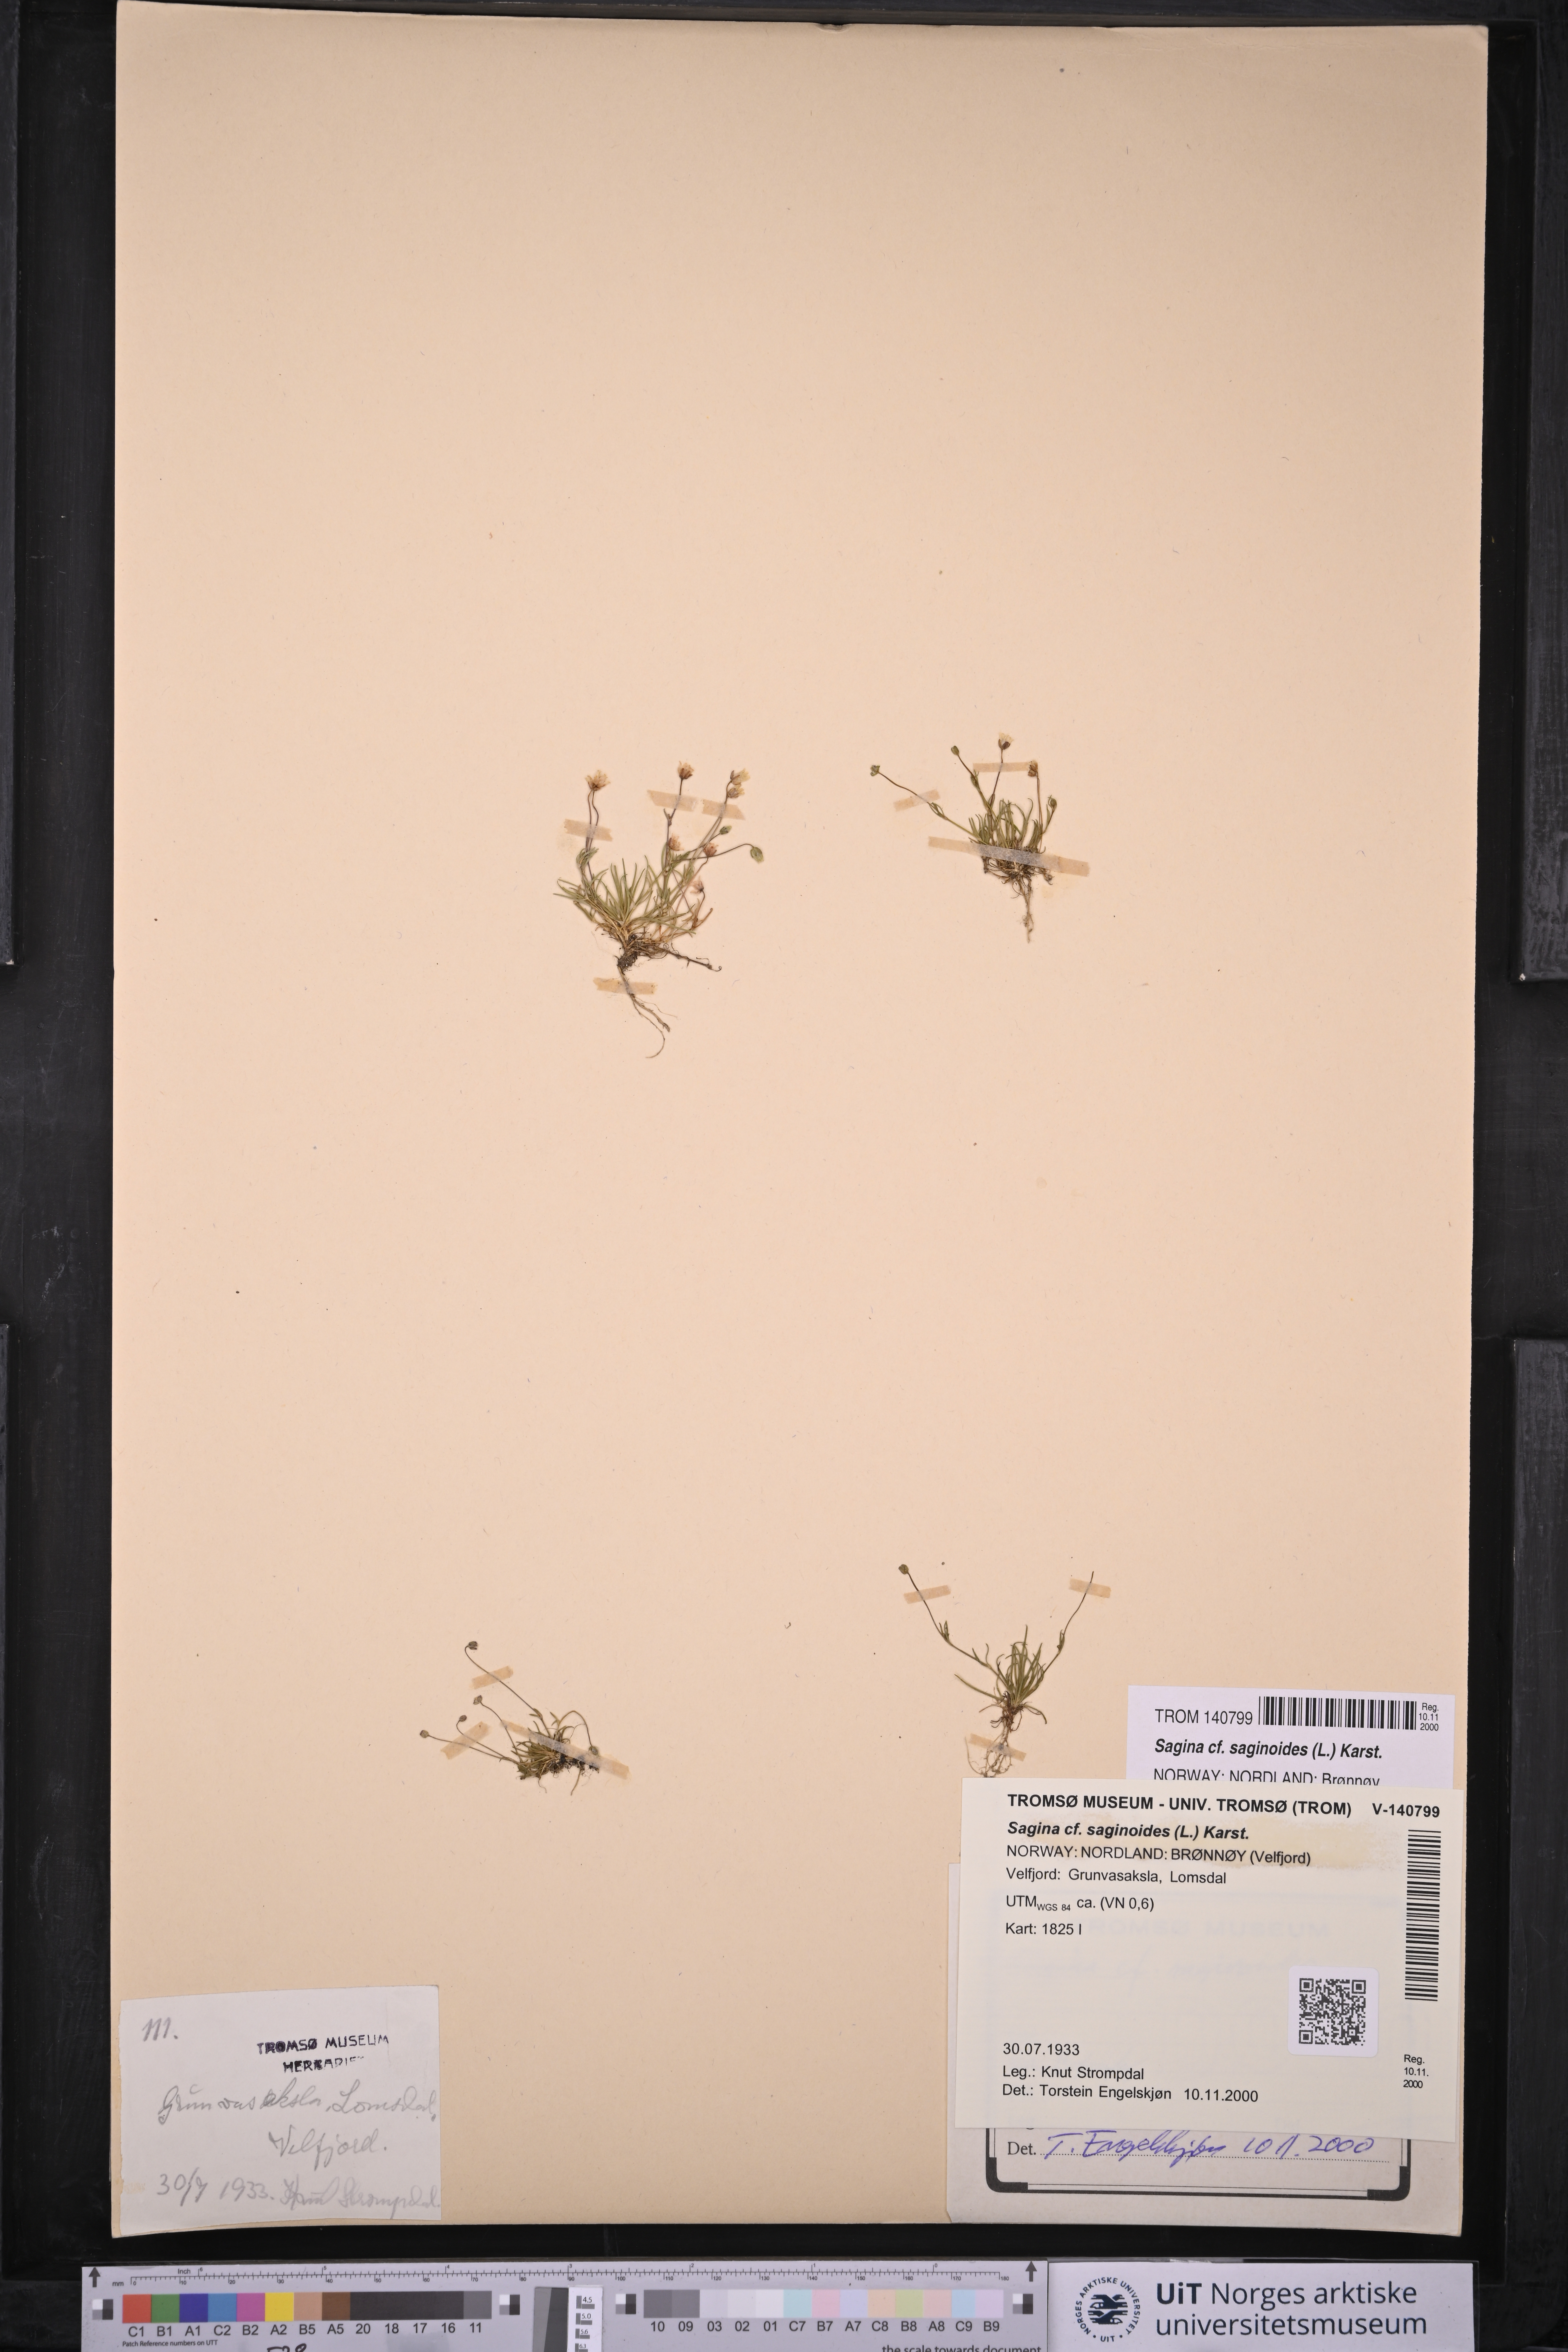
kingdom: Plantae
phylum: Tracheophyta
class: Magnoliopsida
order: Caryophyllales
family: Caryophyllaceae
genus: Sagina
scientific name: Sagina saginoides
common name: Alpine pearlwort
